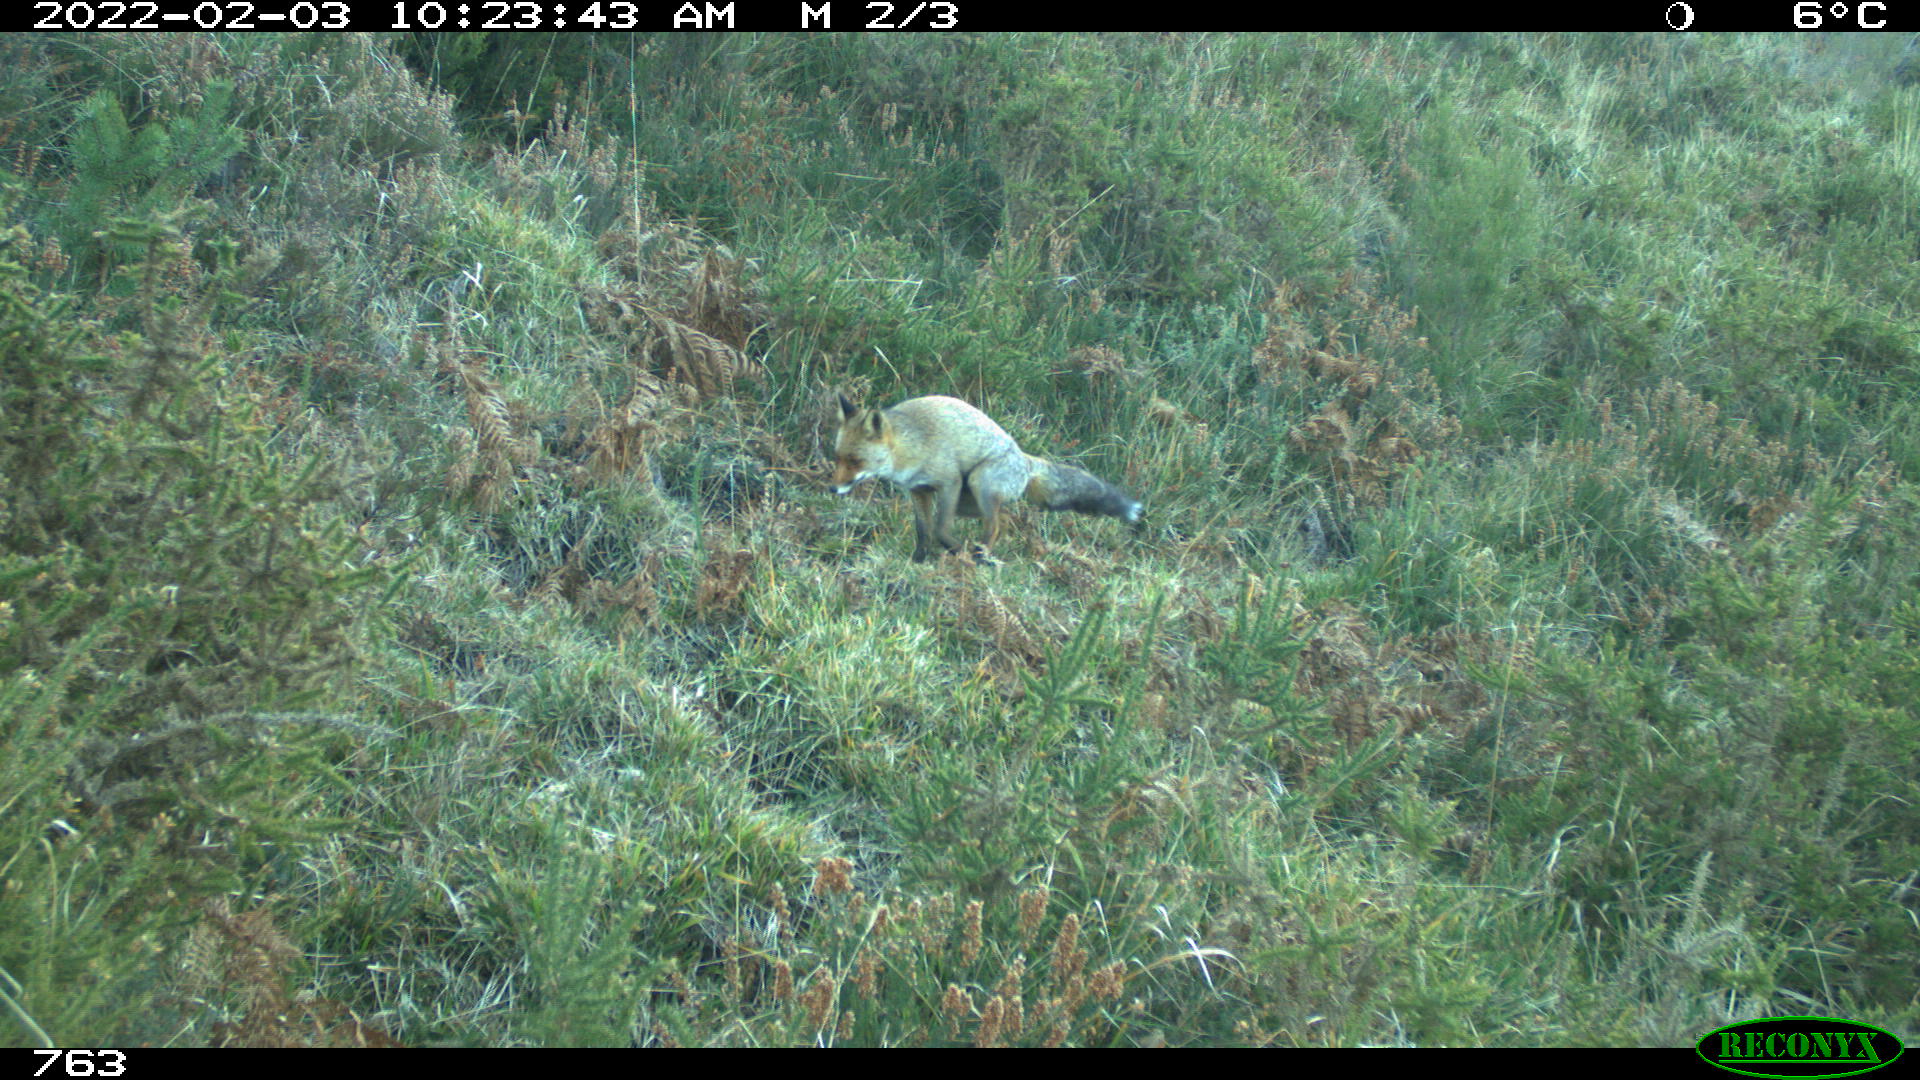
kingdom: Animalia
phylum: Chordata
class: Mammalia
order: Carnivora
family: Canidae
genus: Vulpes
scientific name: Vulpes vulpes
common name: Red fox
